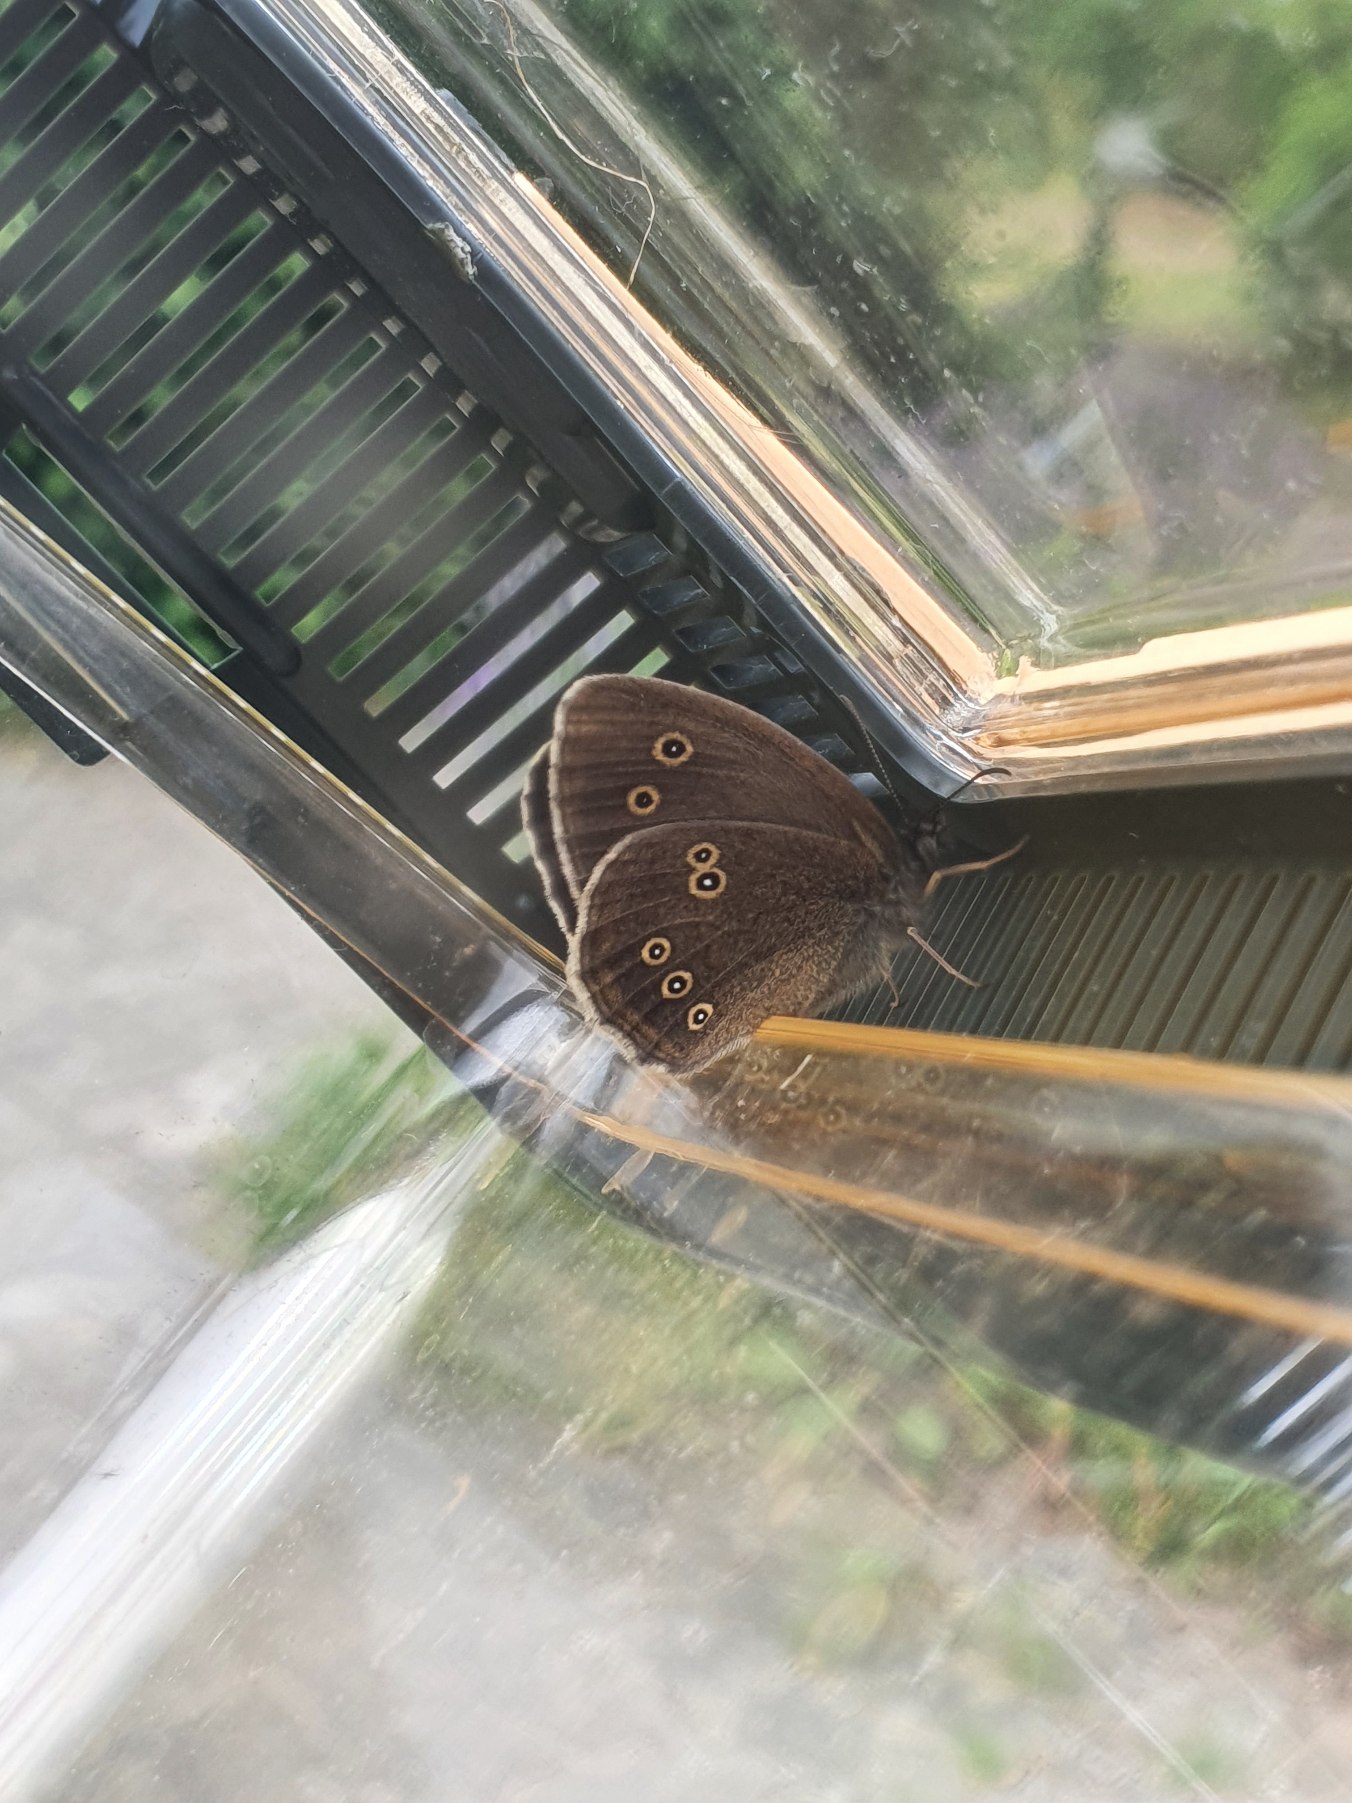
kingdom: Animalia
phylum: Arthropoda
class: Insecta
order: Lepidoptera
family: Nymphalidae
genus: Aphantopus
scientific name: Aphantopus hyperantus
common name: Engrandøje
